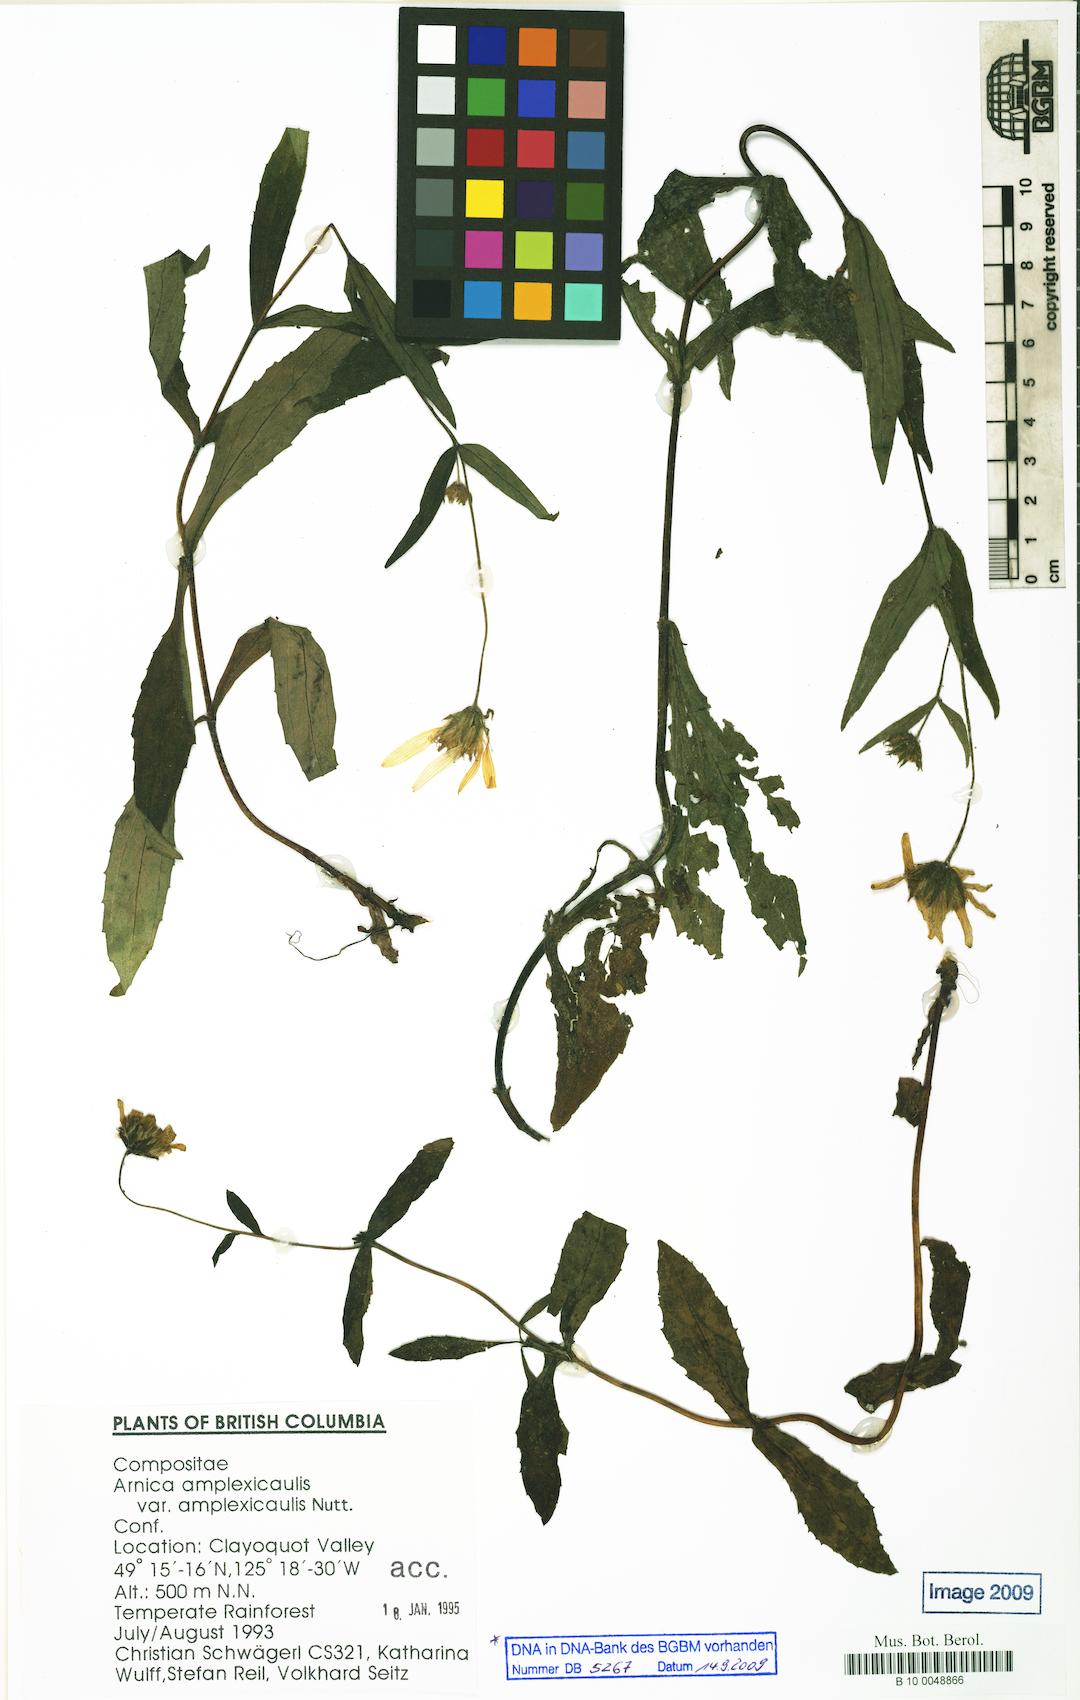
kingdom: Plantae
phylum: Tracheophyta
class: Magnoliopsida
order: Asterales
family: Asteraceae
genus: Arnica
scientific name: Arnica lanceolata
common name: Lance-leaved arnica
